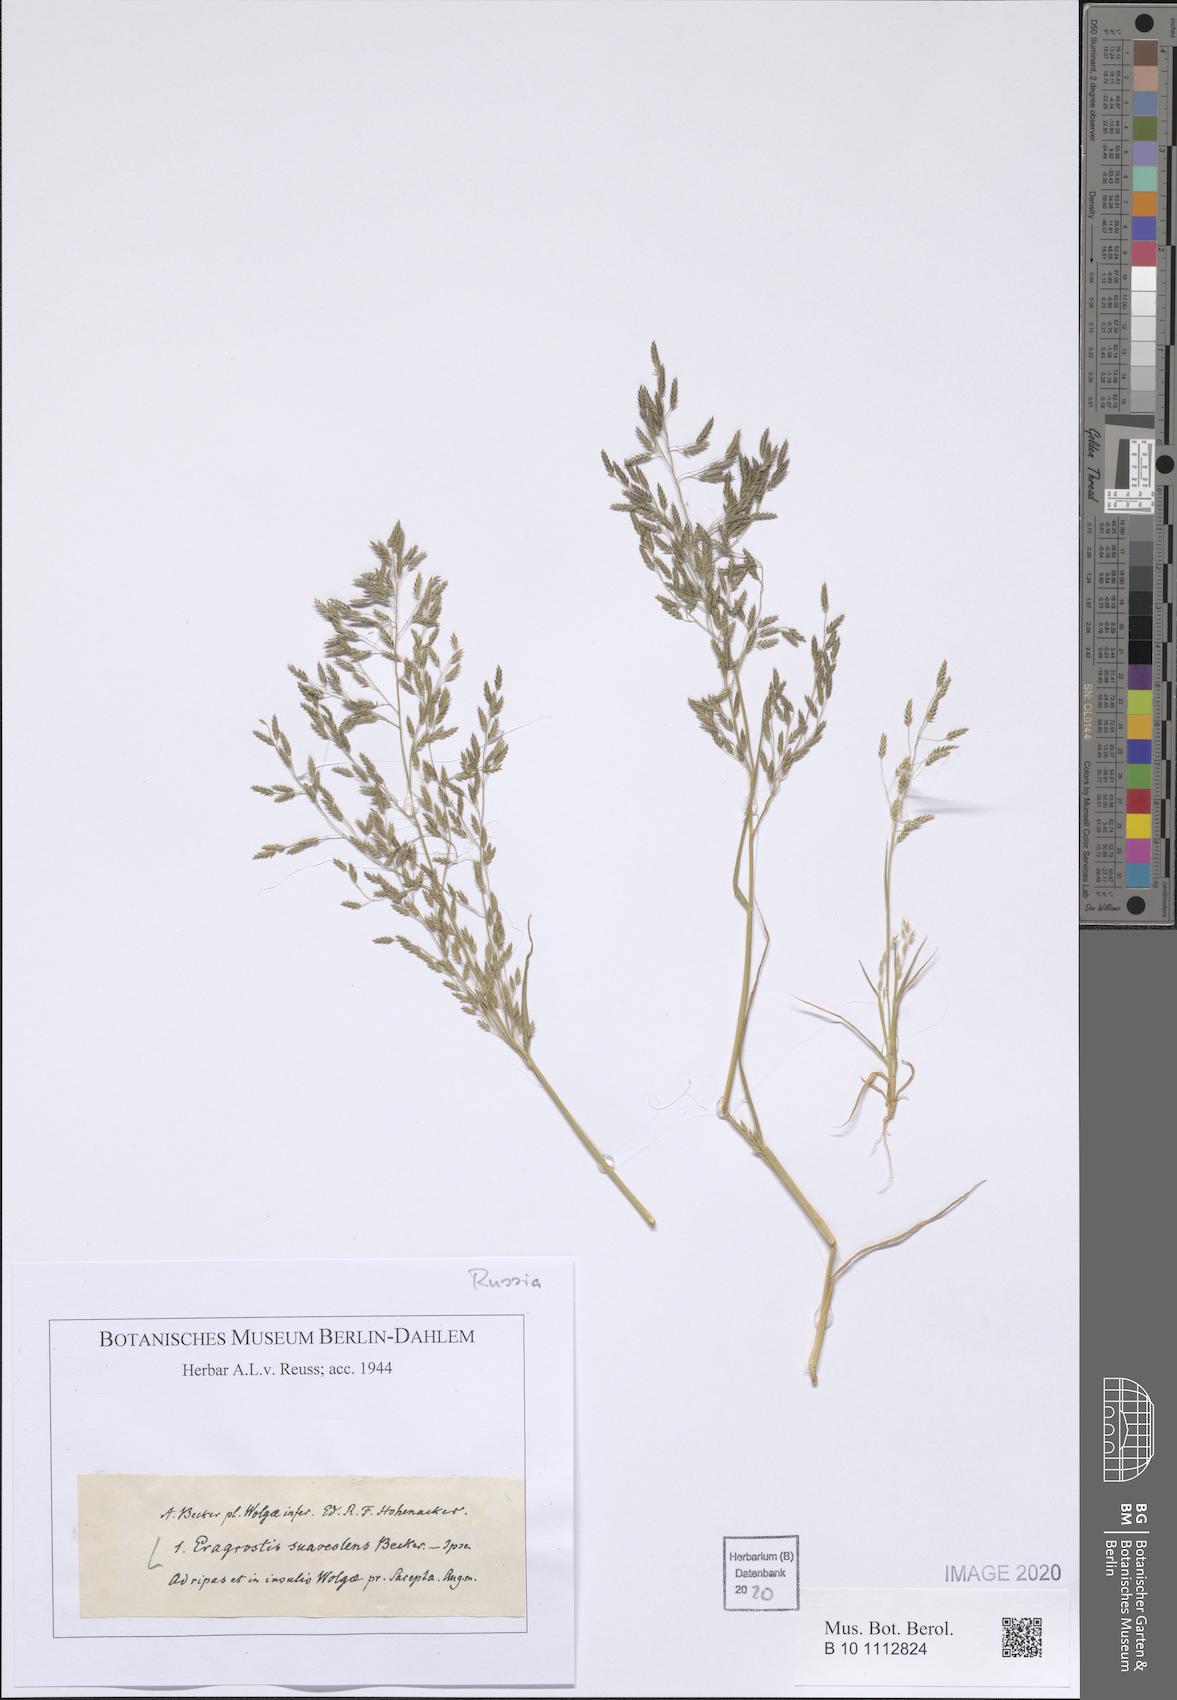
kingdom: Plantae
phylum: Tracheophyta
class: Liliopsida
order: Poales
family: Poaceae
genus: Eragrostis
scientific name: Eragrostis minor
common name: Small love-grass
